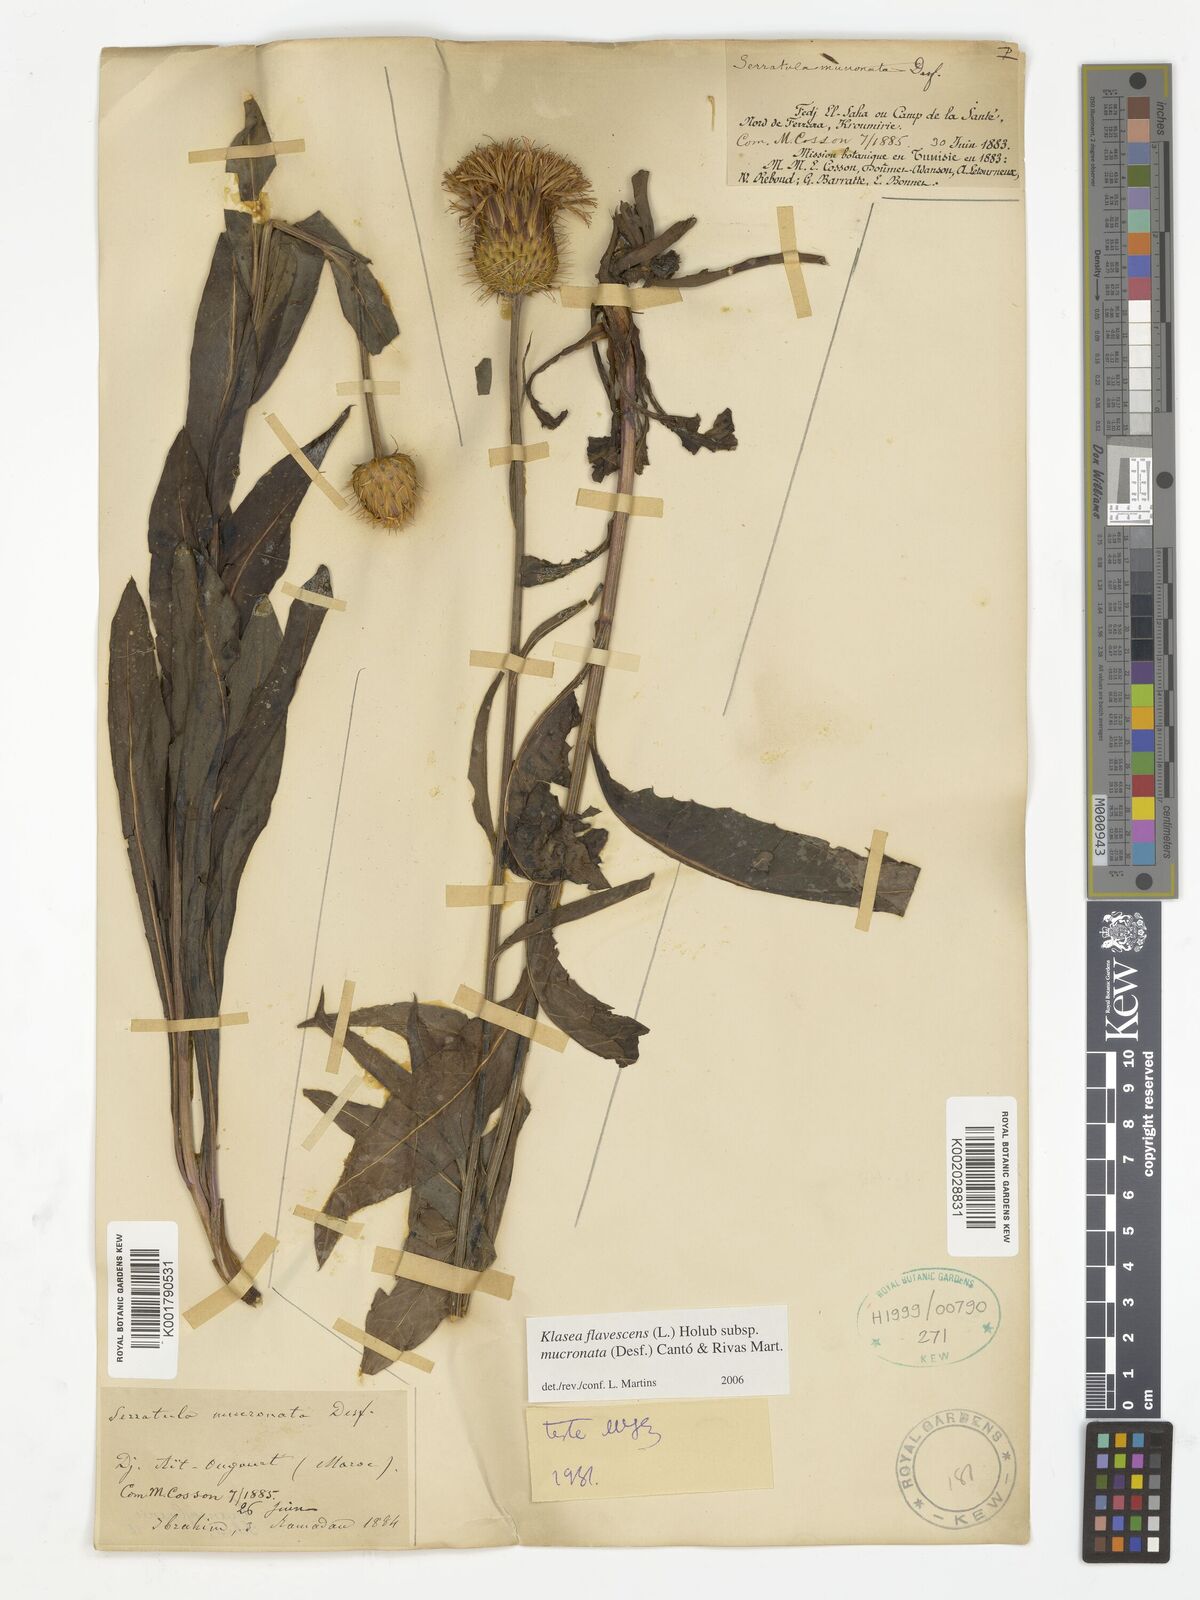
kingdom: Plantae
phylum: Tracheophyta
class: Magnoliopsida
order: Asterales
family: Asteraceae
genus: Klasea
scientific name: Klasea flavescens
